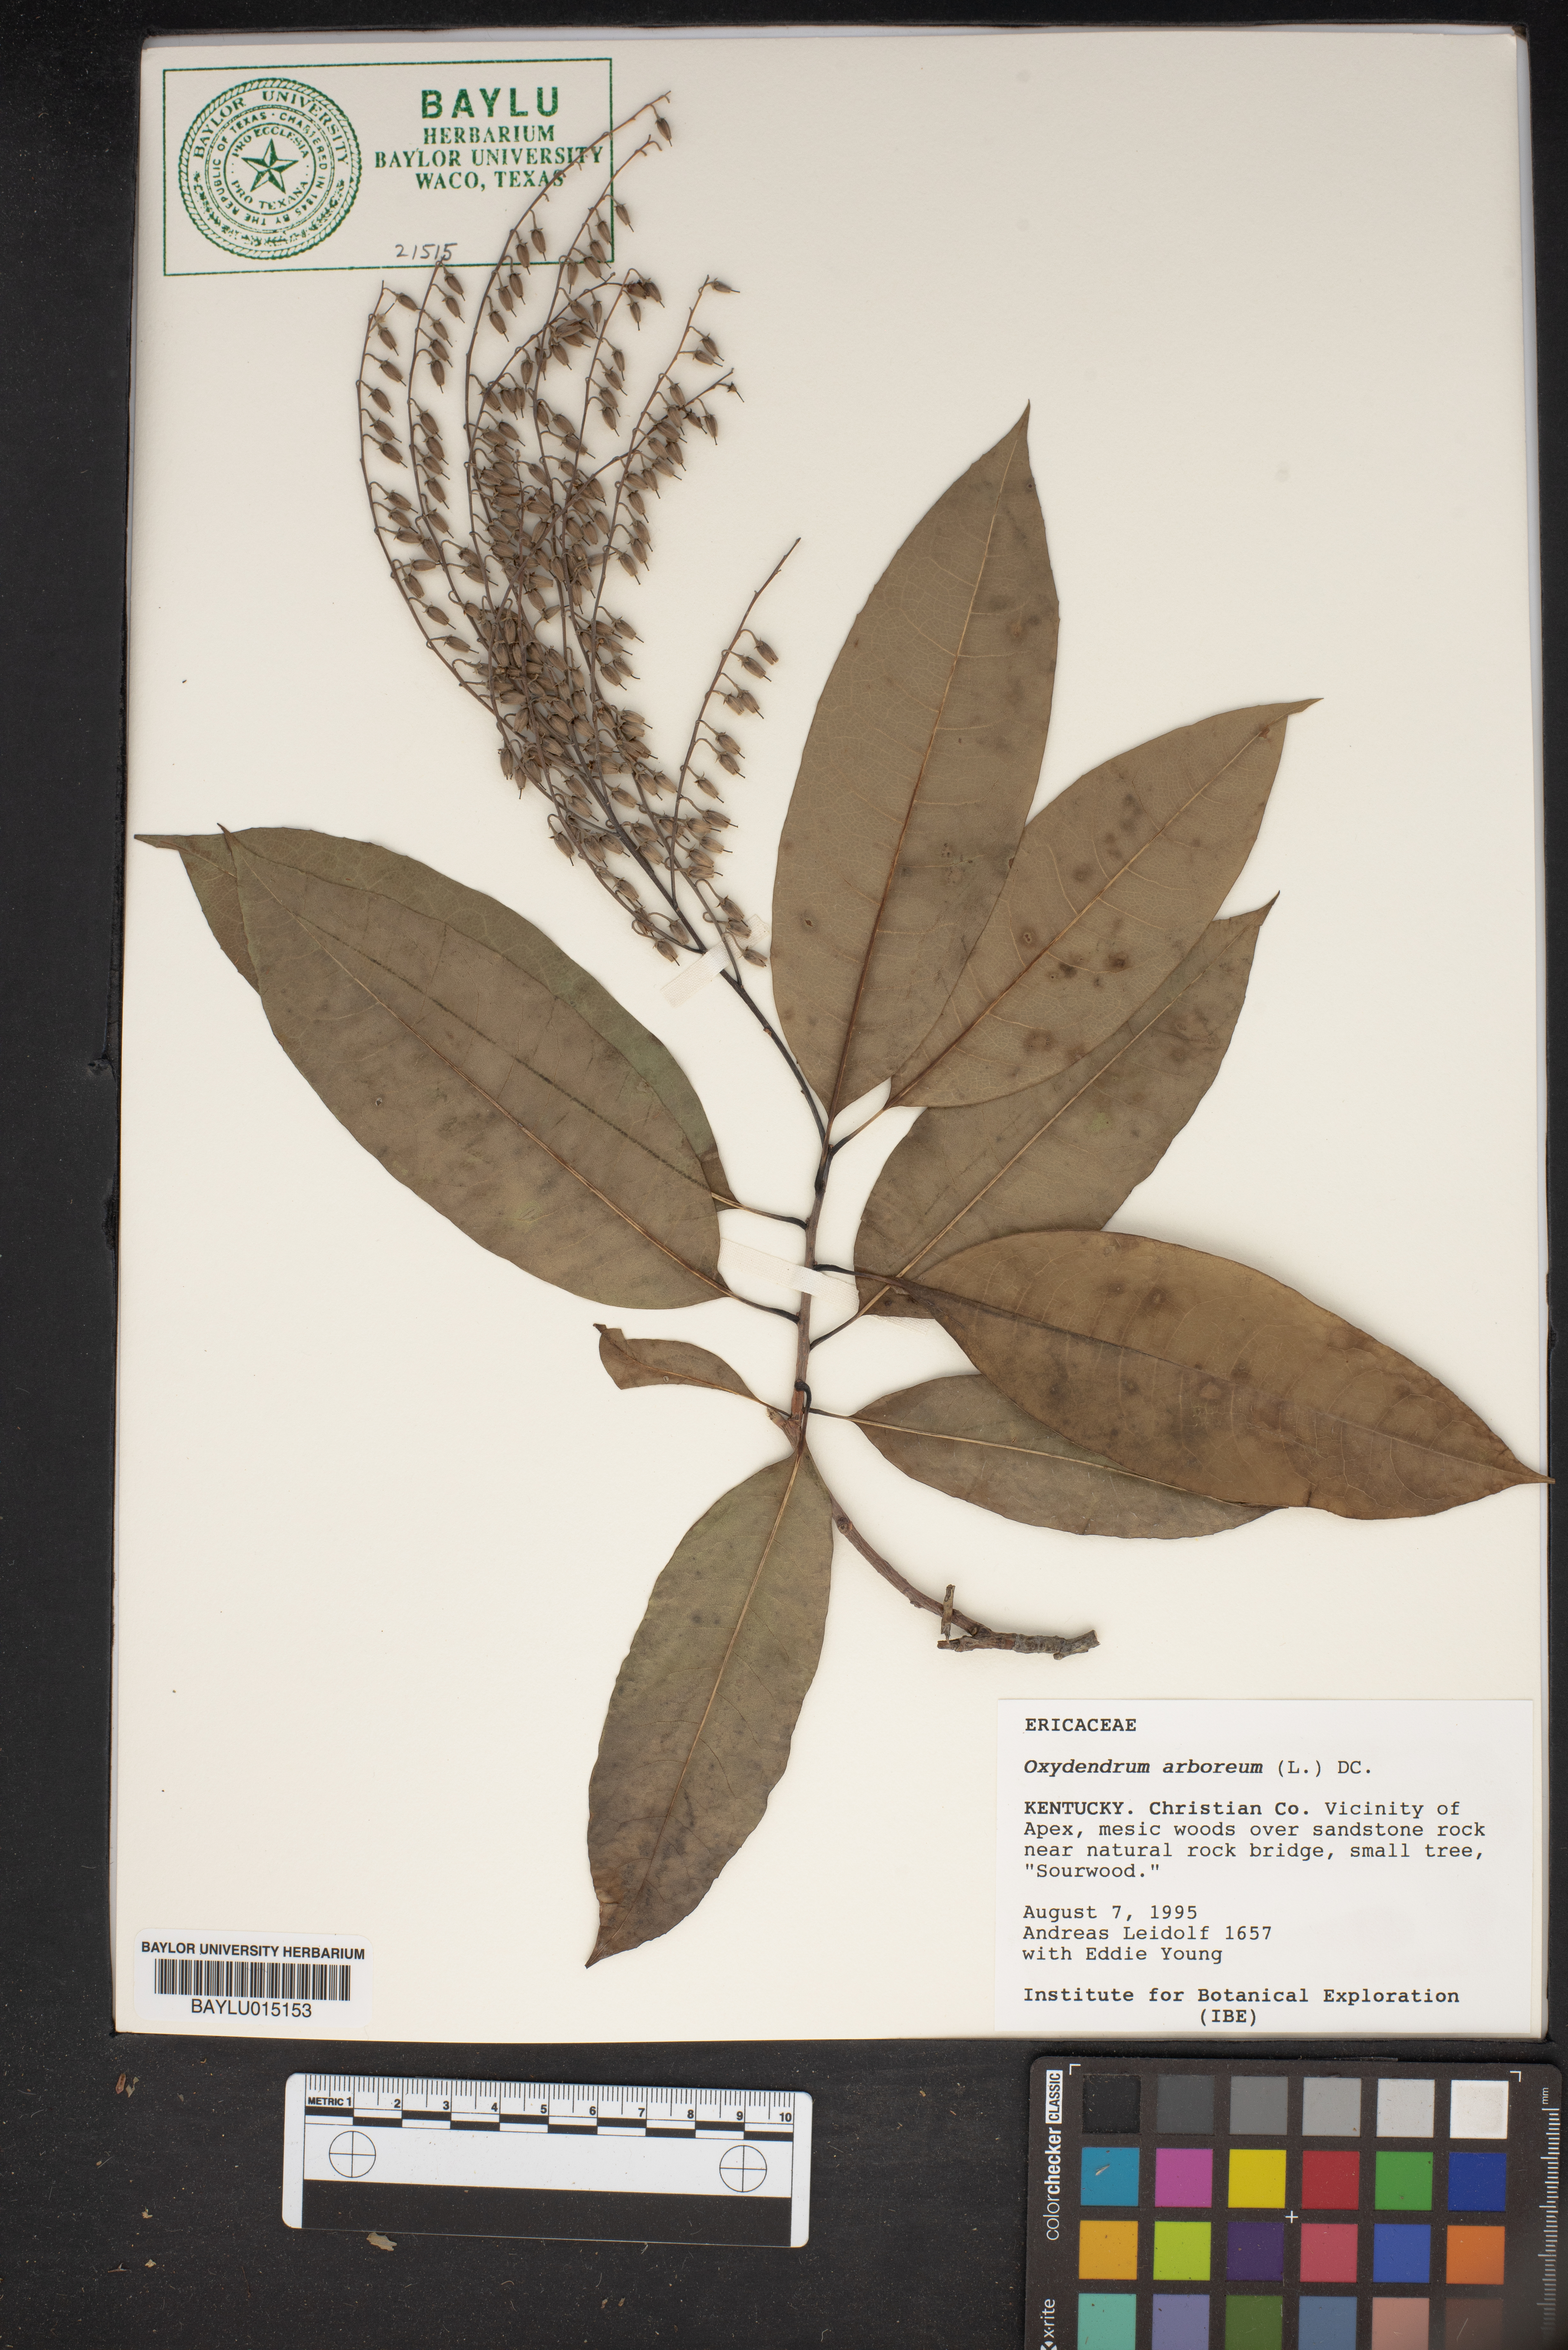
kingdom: Plantae
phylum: Tracheophyta
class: Magnoliopsida
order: Ericales
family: Ericaceae
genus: Oxydendrum
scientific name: Oxydendrum arboreum
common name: Sourwood
